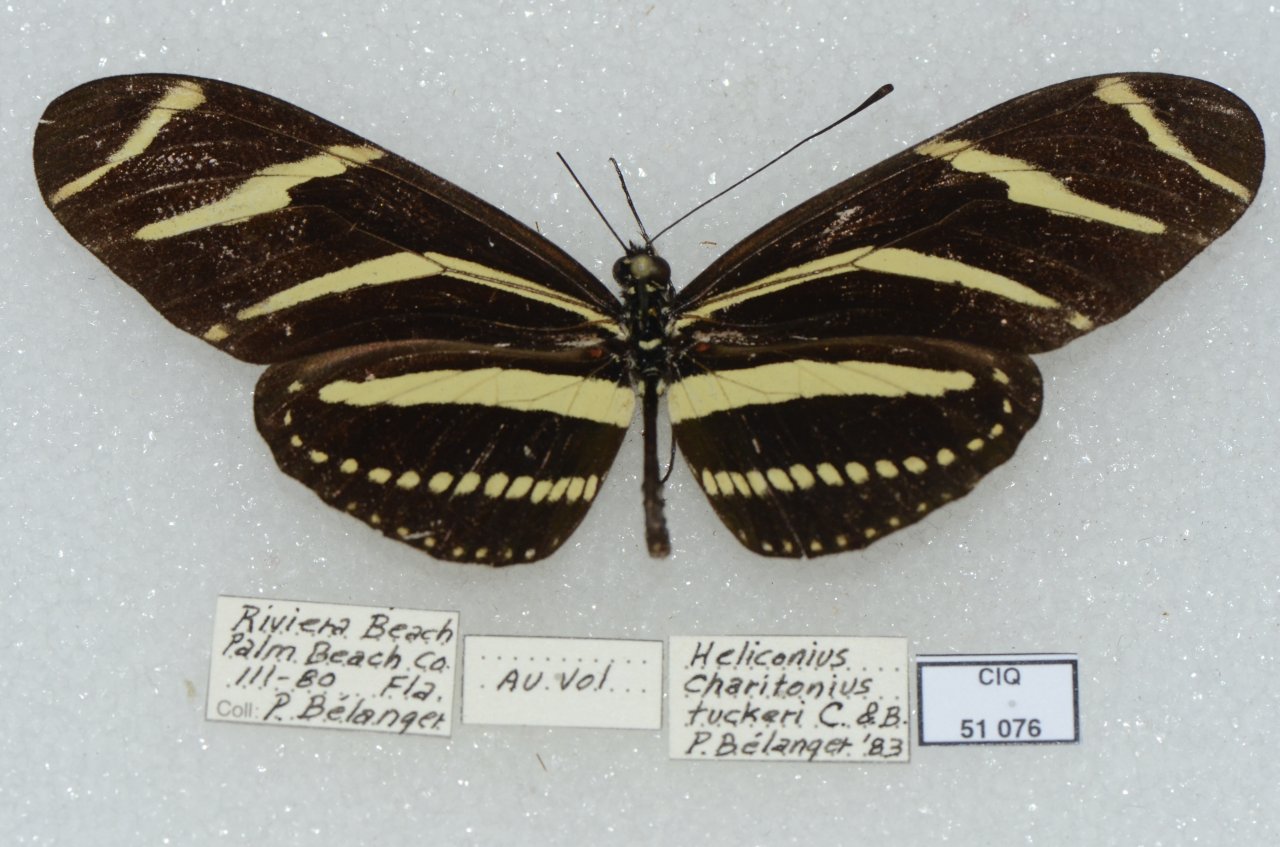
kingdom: Animalia
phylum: Arthropoda
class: Insecta
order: Lepidoptera
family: Nymphalidae
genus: Heliconius
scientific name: Heliconius charithonia
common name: Zebra Longwing
